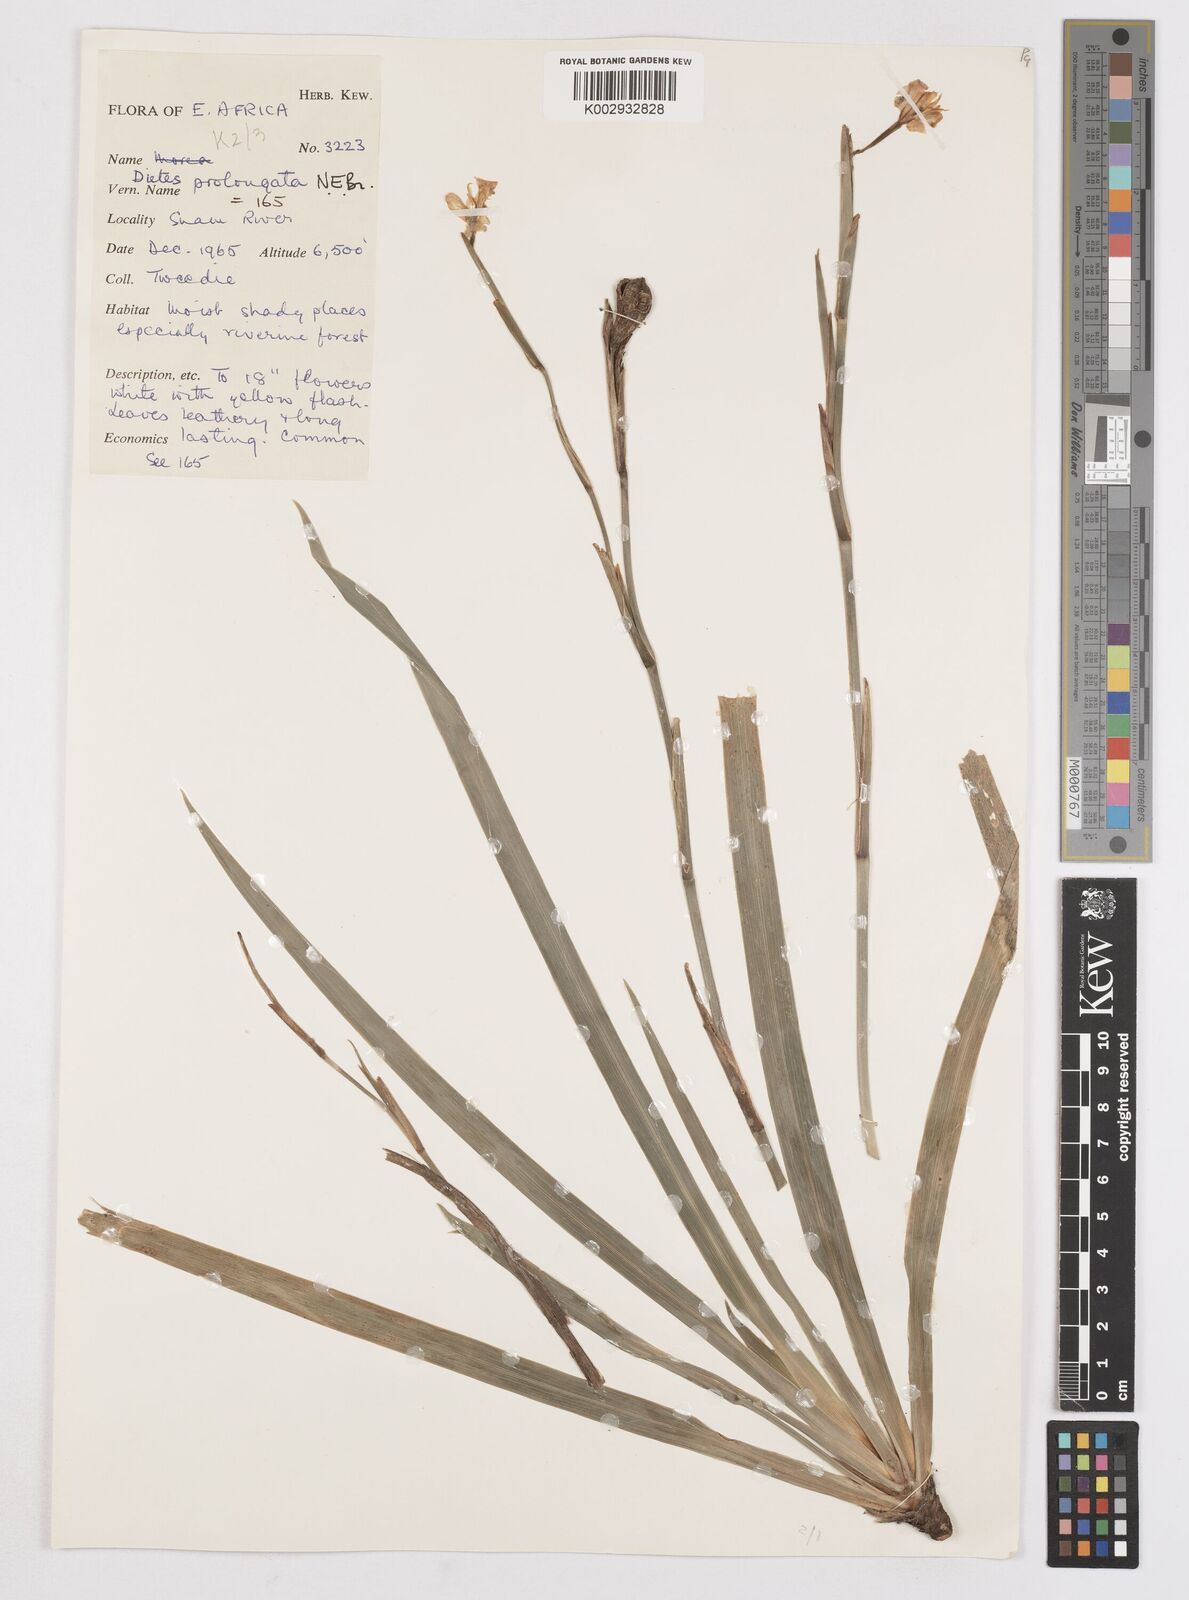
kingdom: Plantae
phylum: Tracheophyta
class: Liliopsida
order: Asparagales
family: Iridaceae
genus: Dietes
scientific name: Dietes iridioides
